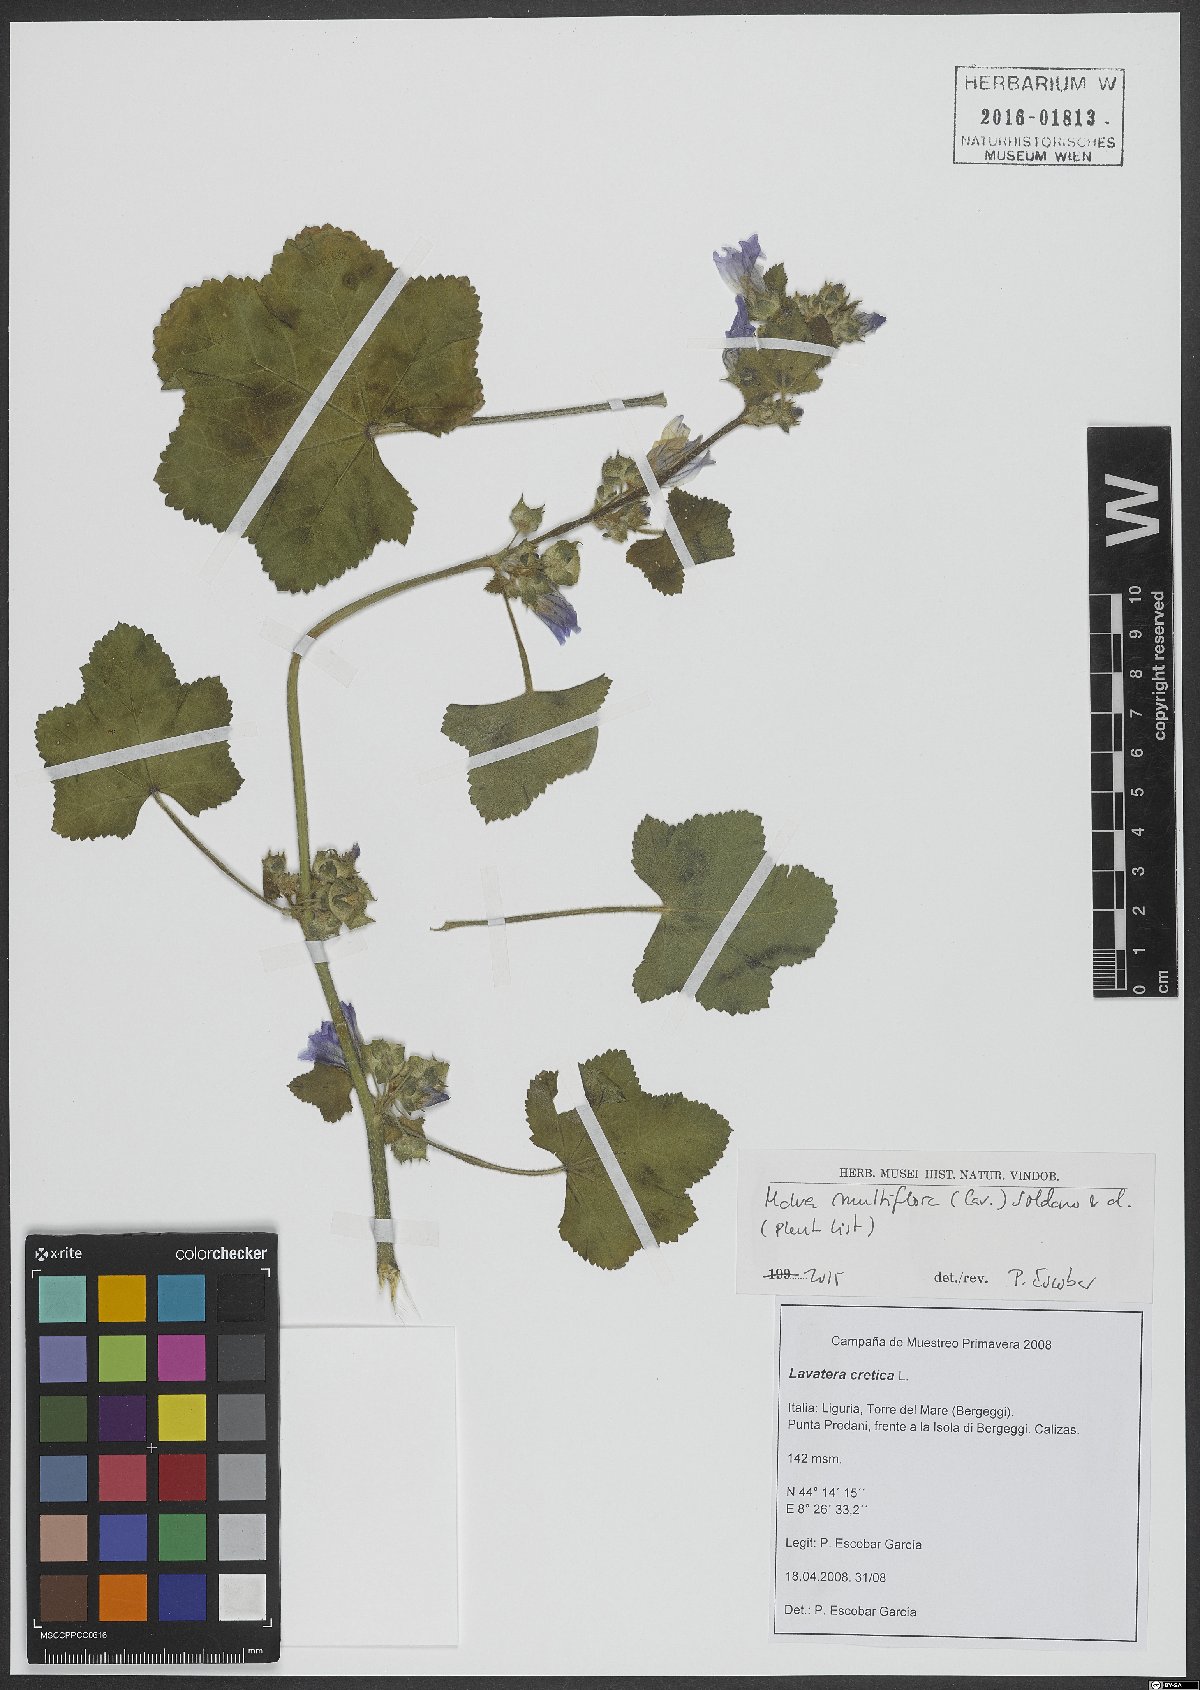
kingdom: Plantae
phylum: Tracheophyta
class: Magnoliopsida
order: Malvales
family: Malvaceae
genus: Malva
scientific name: Malva multiflora
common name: Cheeseweed
